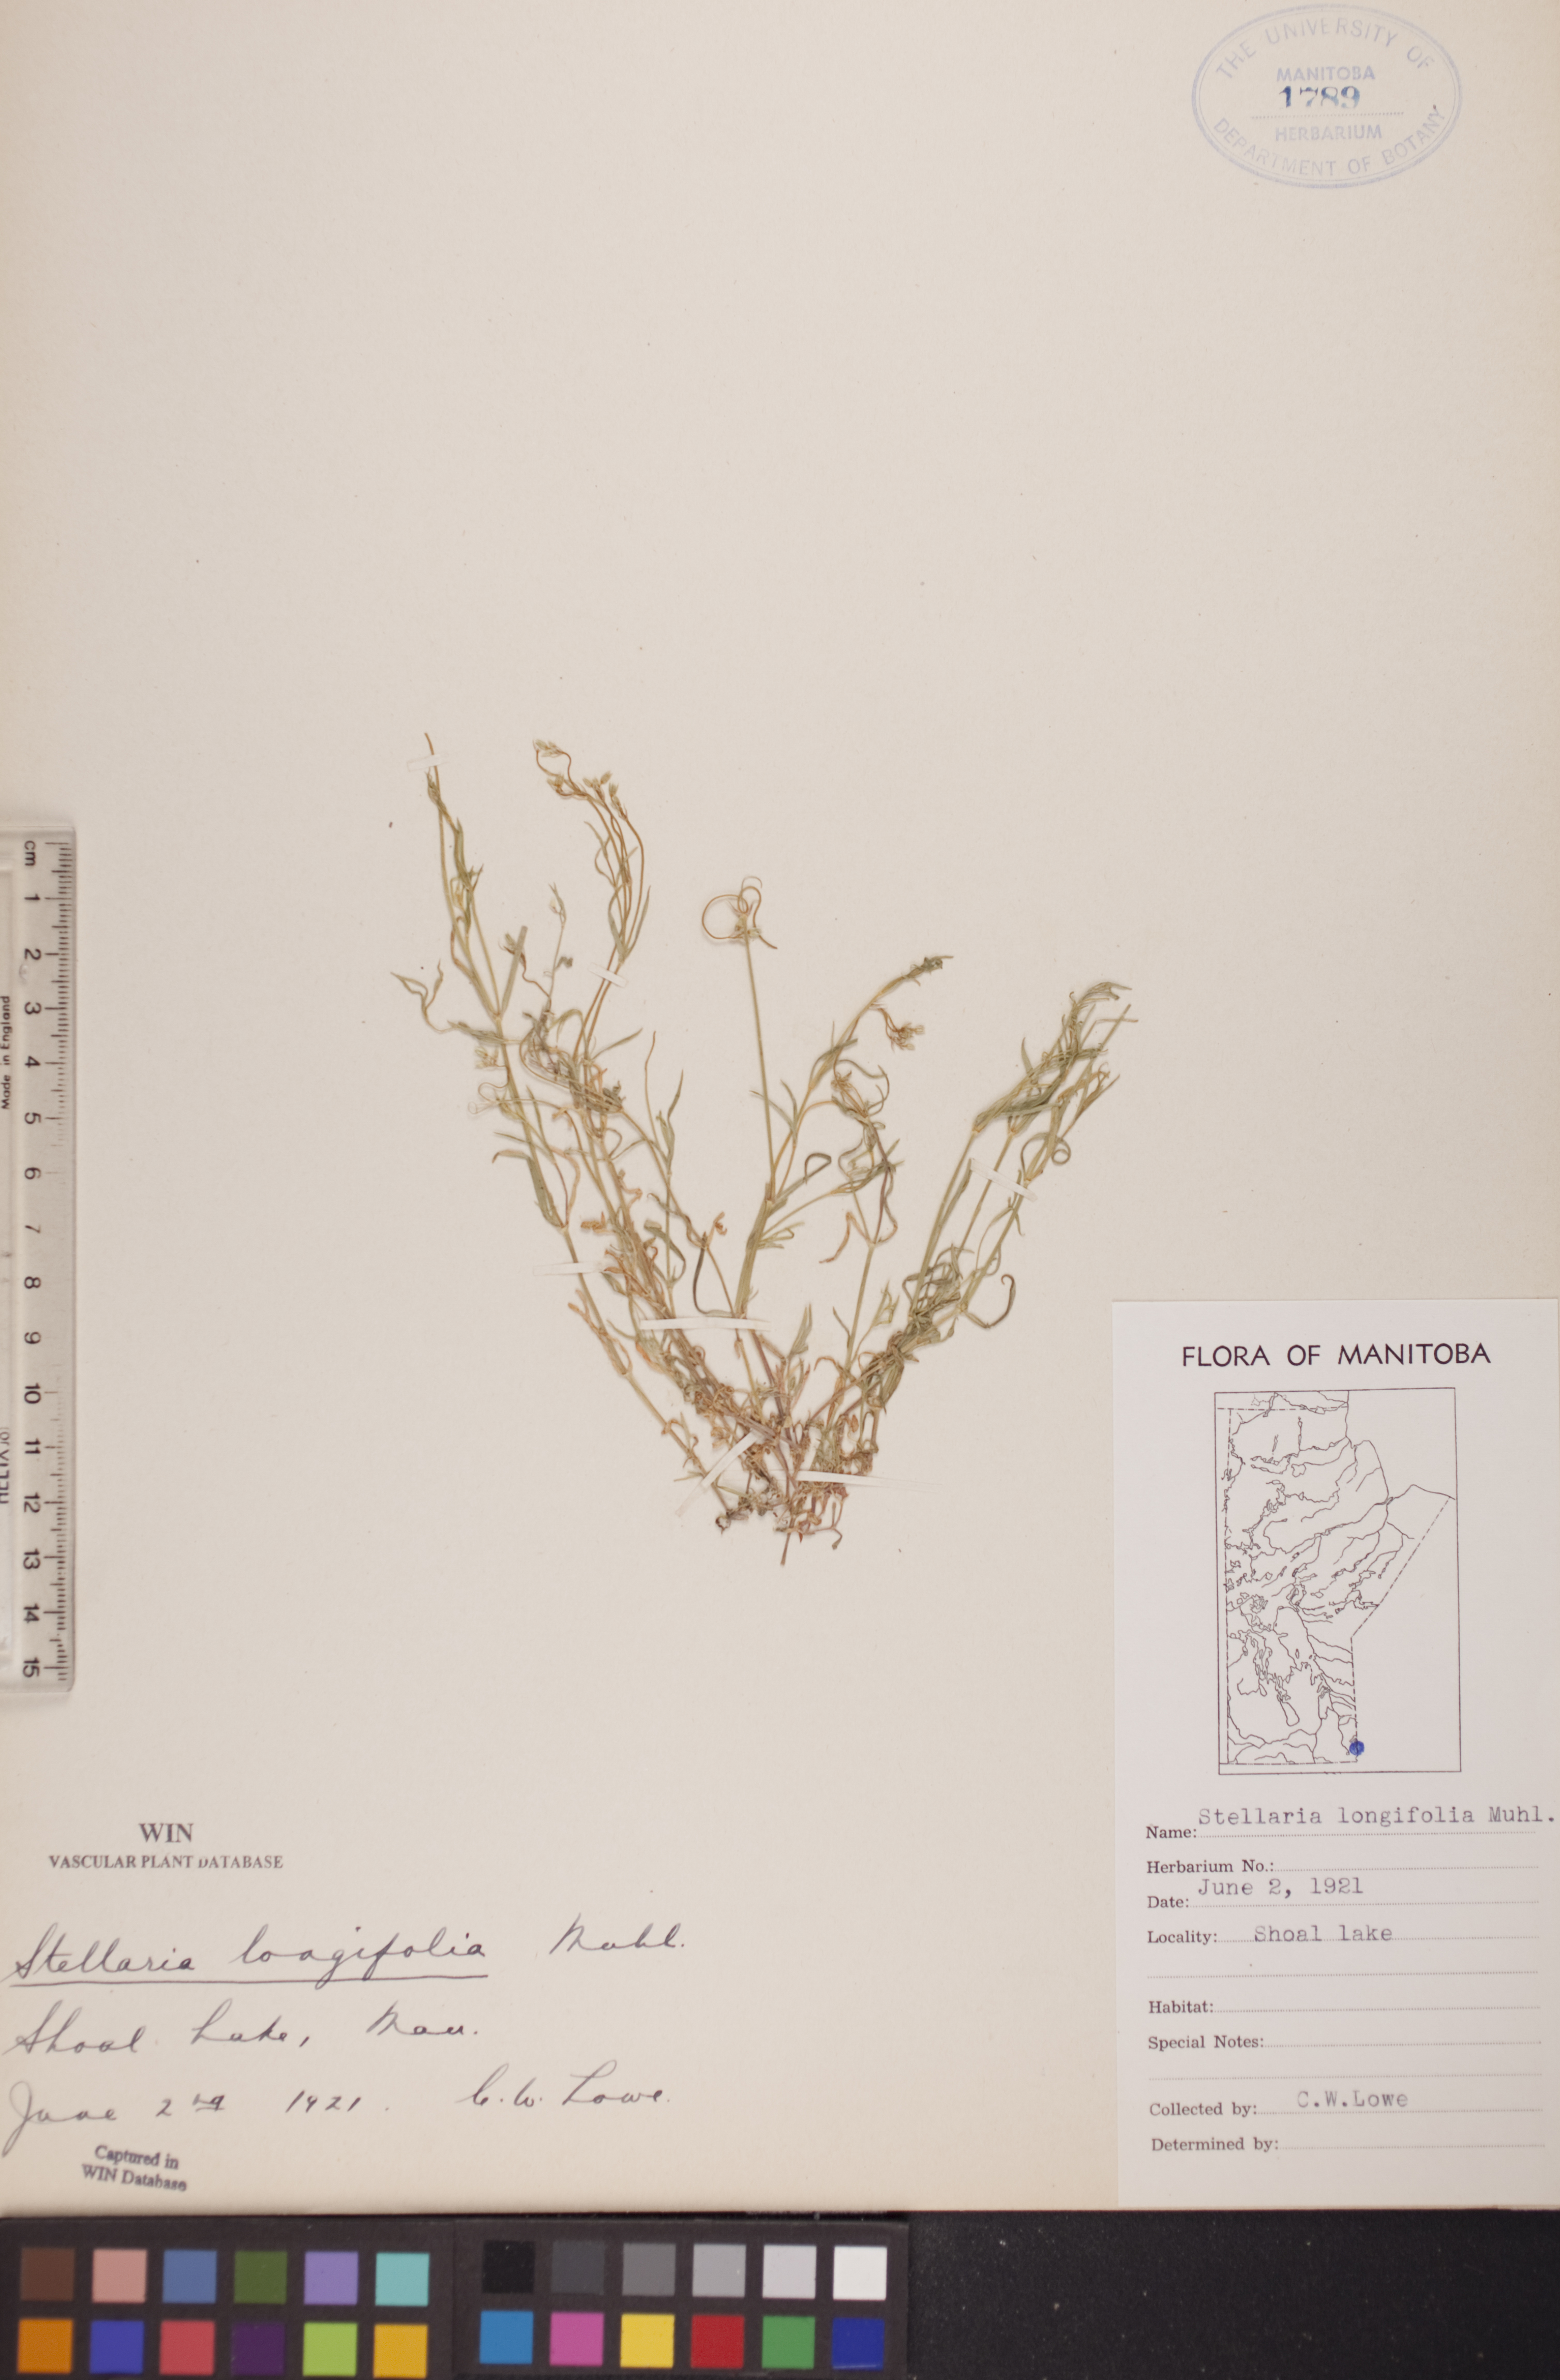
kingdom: Plantae
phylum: Tracheophyta
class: Magnoliopsida
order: Caryophyllales
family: Caryophyllaceae
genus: Stellaria
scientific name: Stellaria longifolia
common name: Long-leaved chickweed
